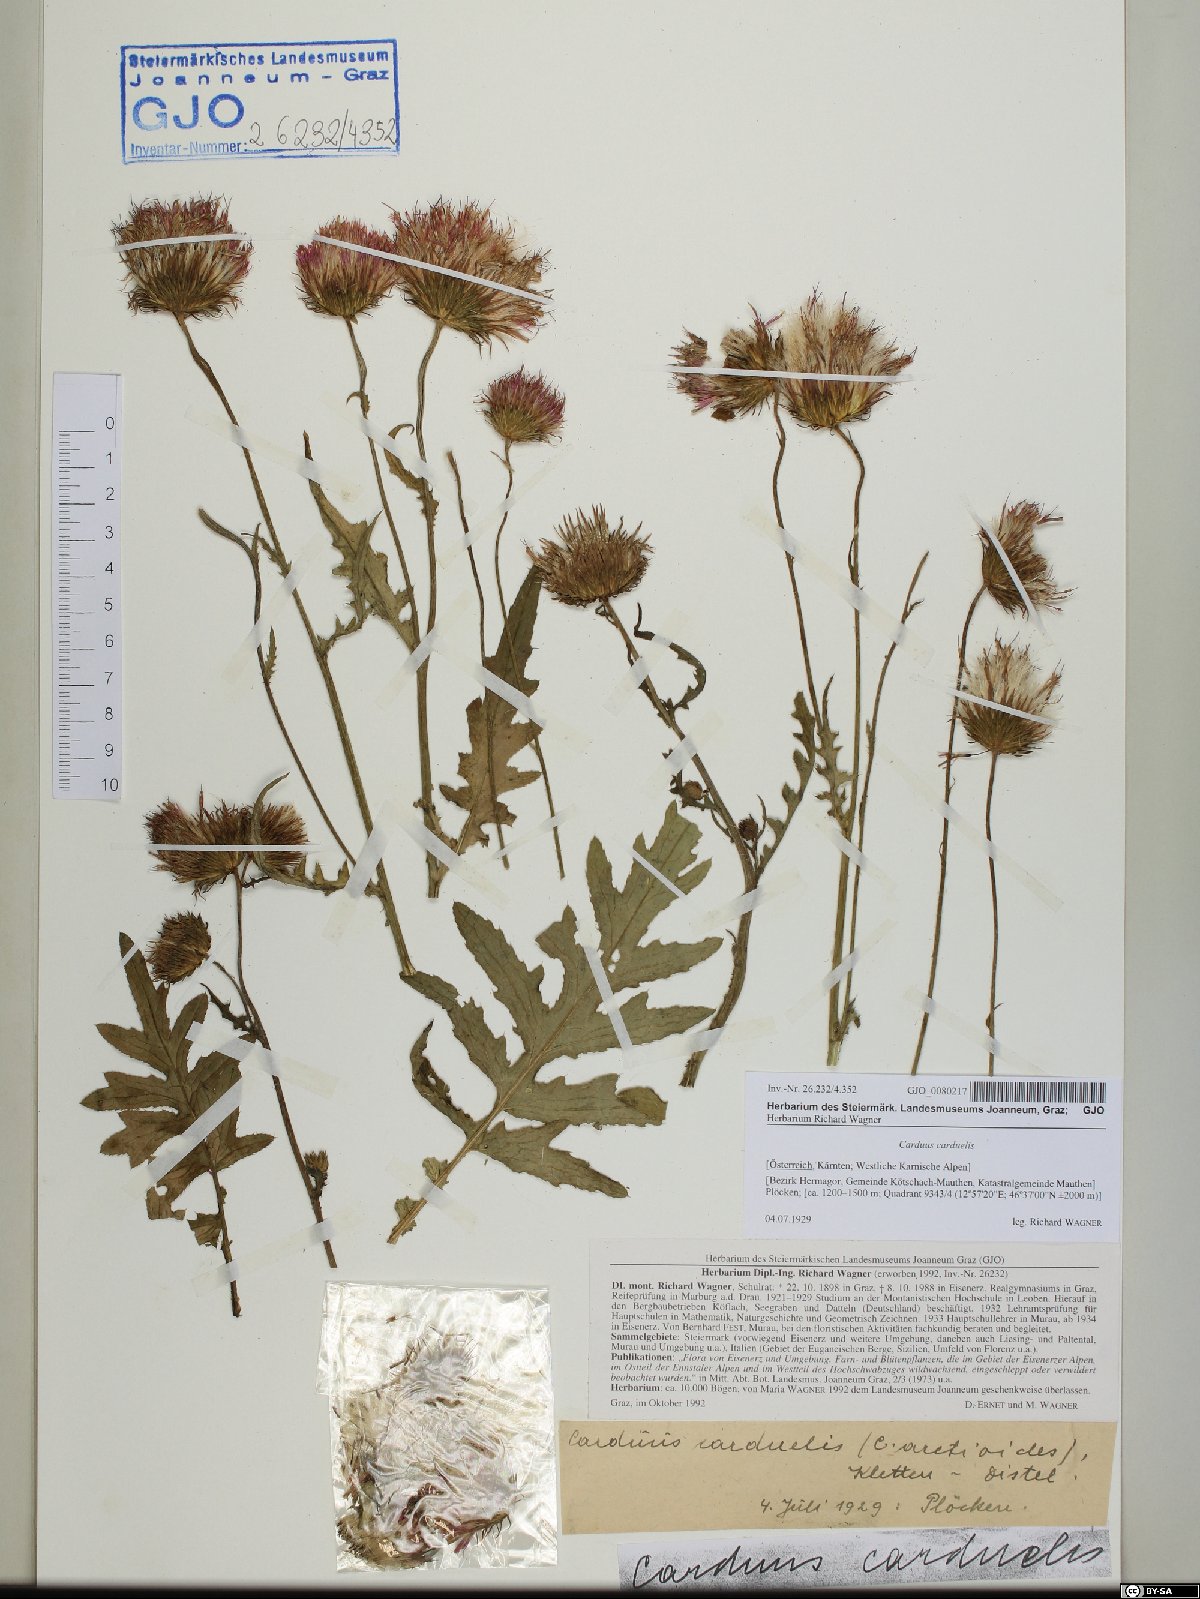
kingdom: Plantae
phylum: Tracheophyta
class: Magnoliopsida
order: Asterales
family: Asteraceae
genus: Carduus
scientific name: Carduus carduelis
